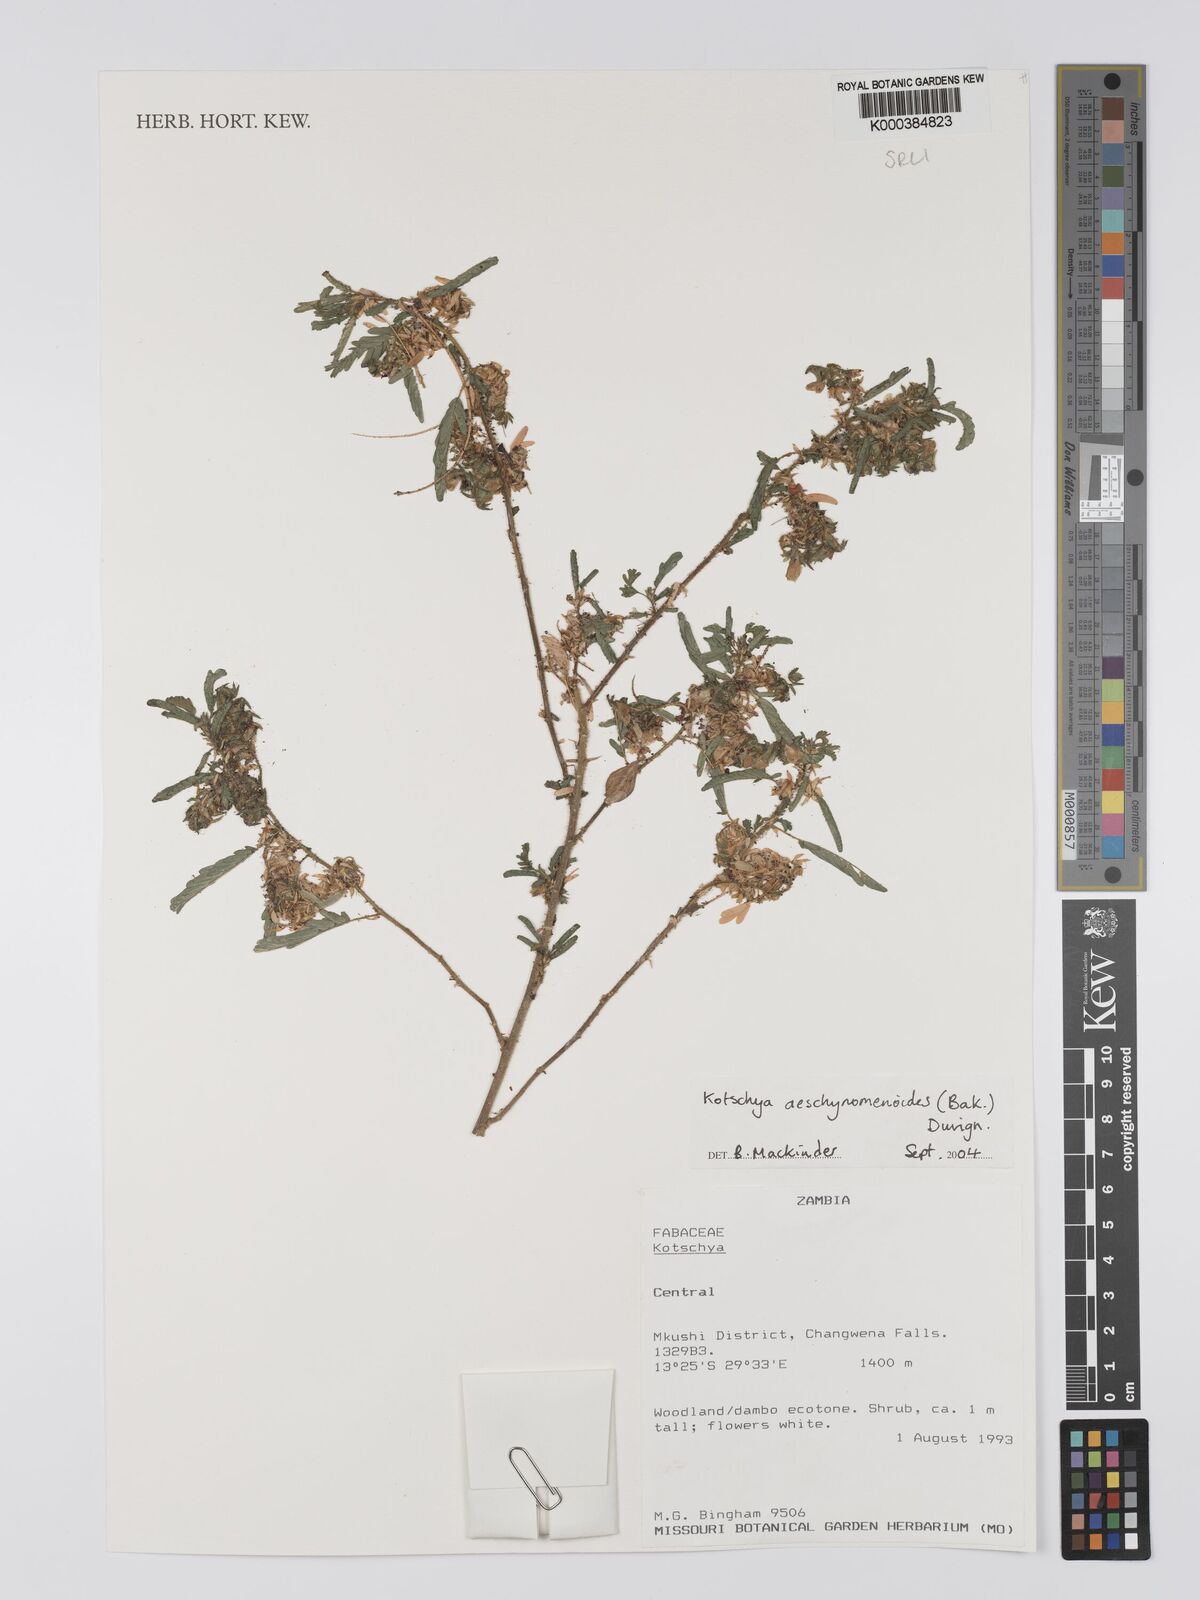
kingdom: Plantae
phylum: Tracheophyta
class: Magnoliopsida
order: Fabales
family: Fabaceae
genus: Kotschya
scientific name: Kotschya aeschynomenoides
